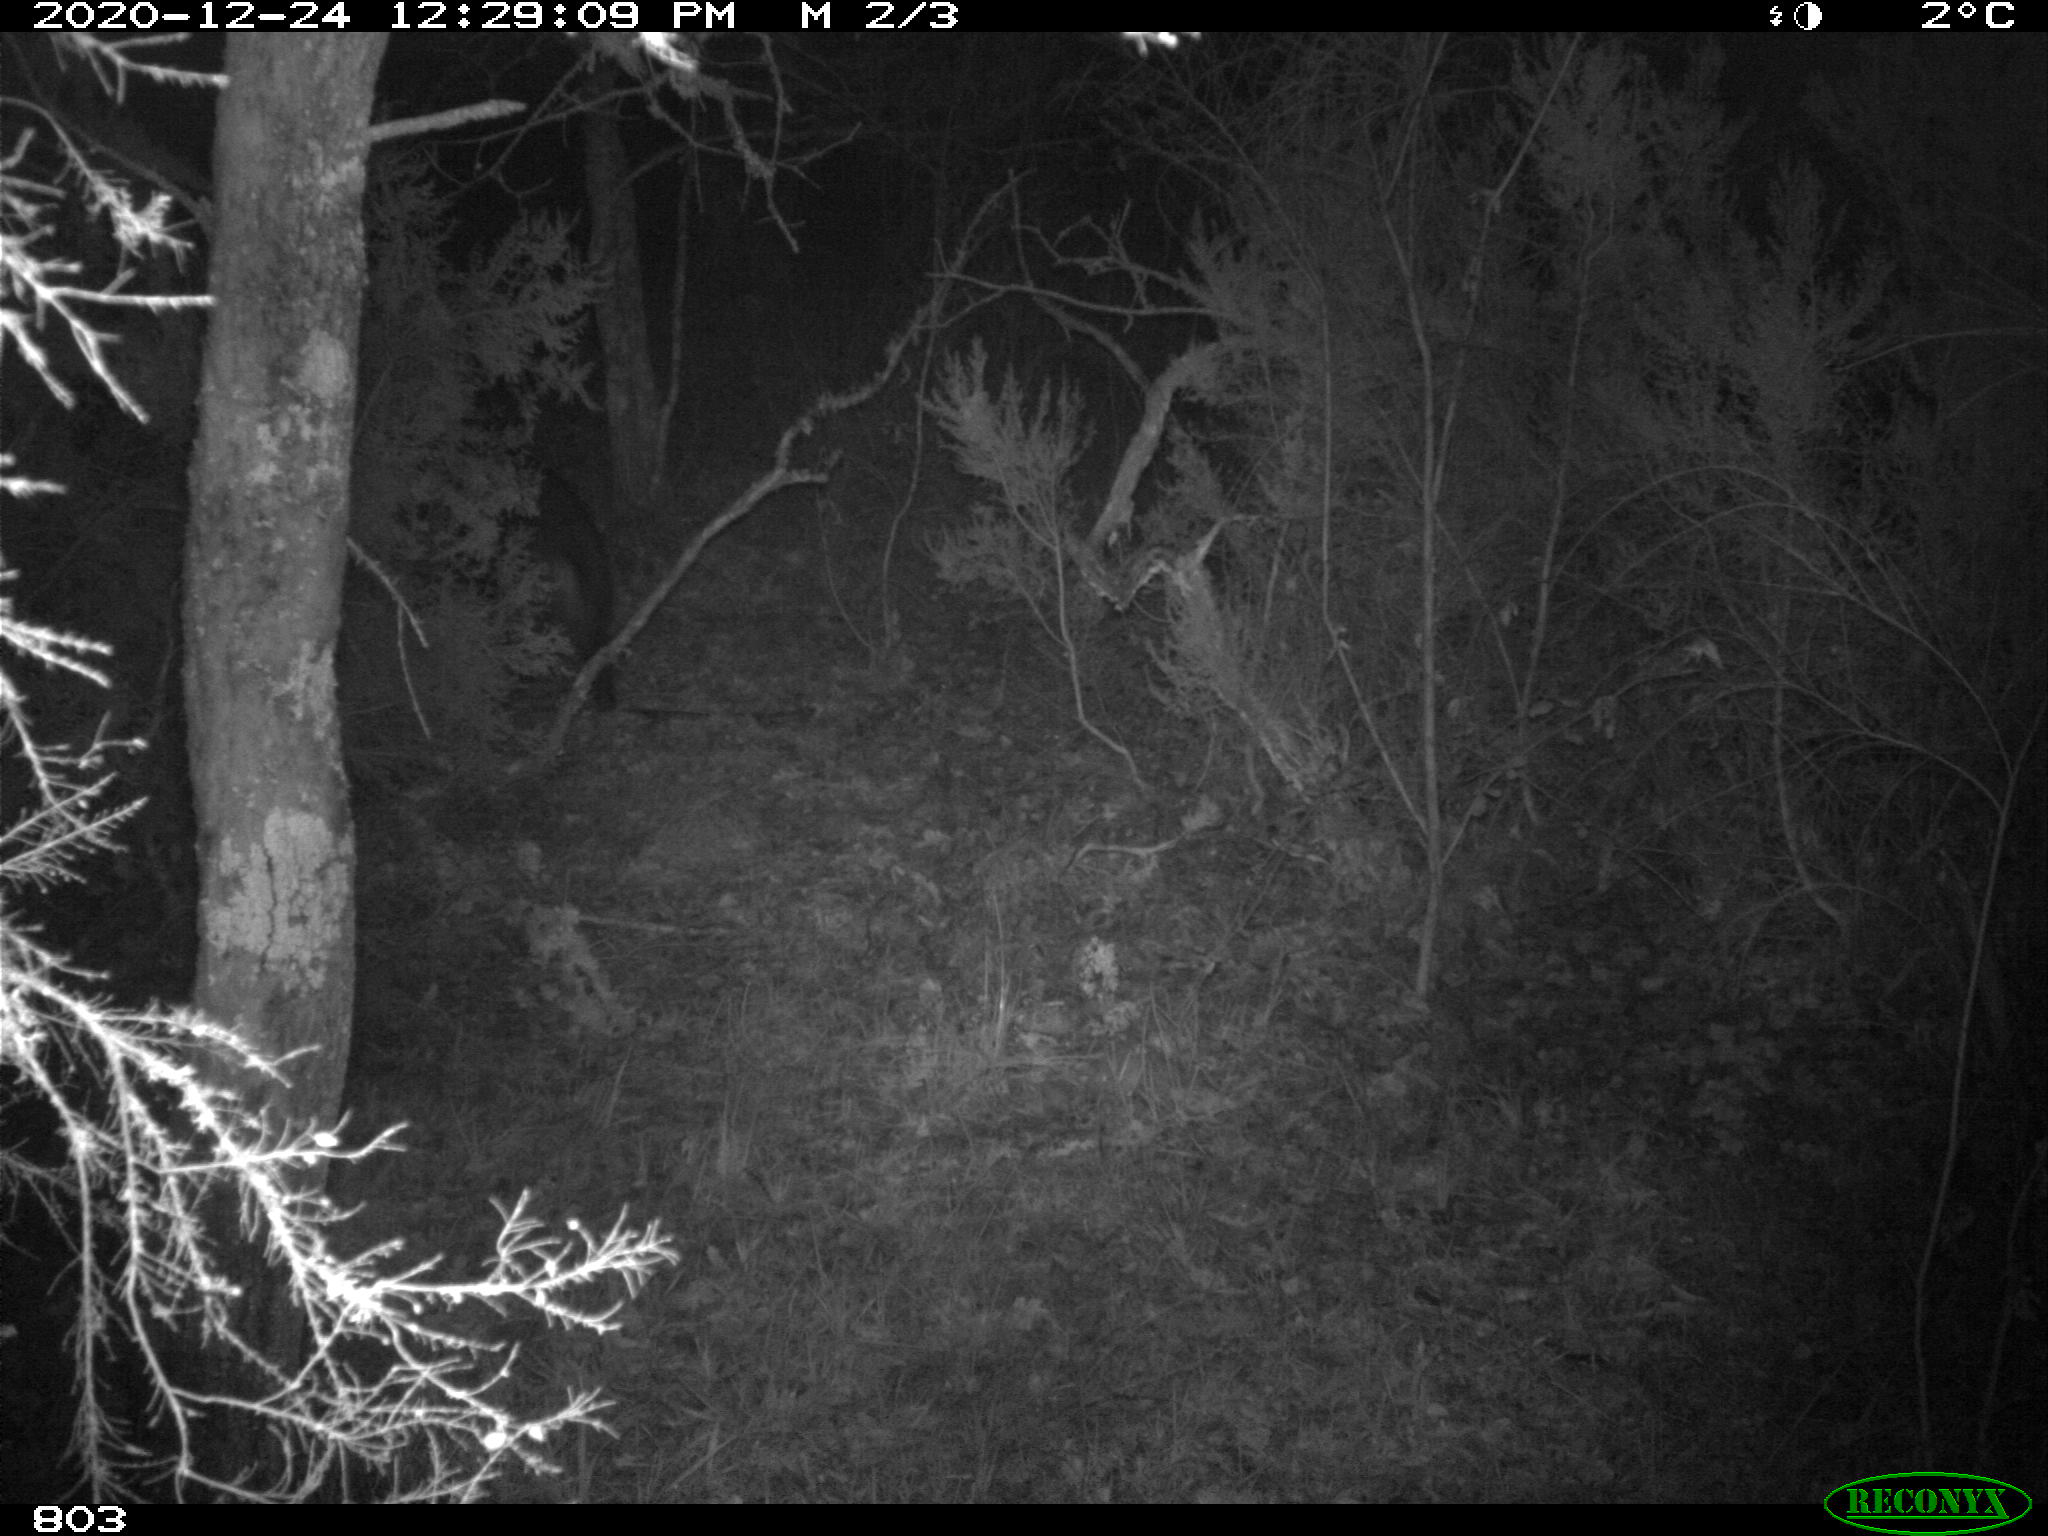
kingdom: Animalia
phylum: Chordata
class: Mammalia
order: Artiodactyla
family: Suidae
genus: Sus
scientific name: Sus scrofa
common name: Wild boar
